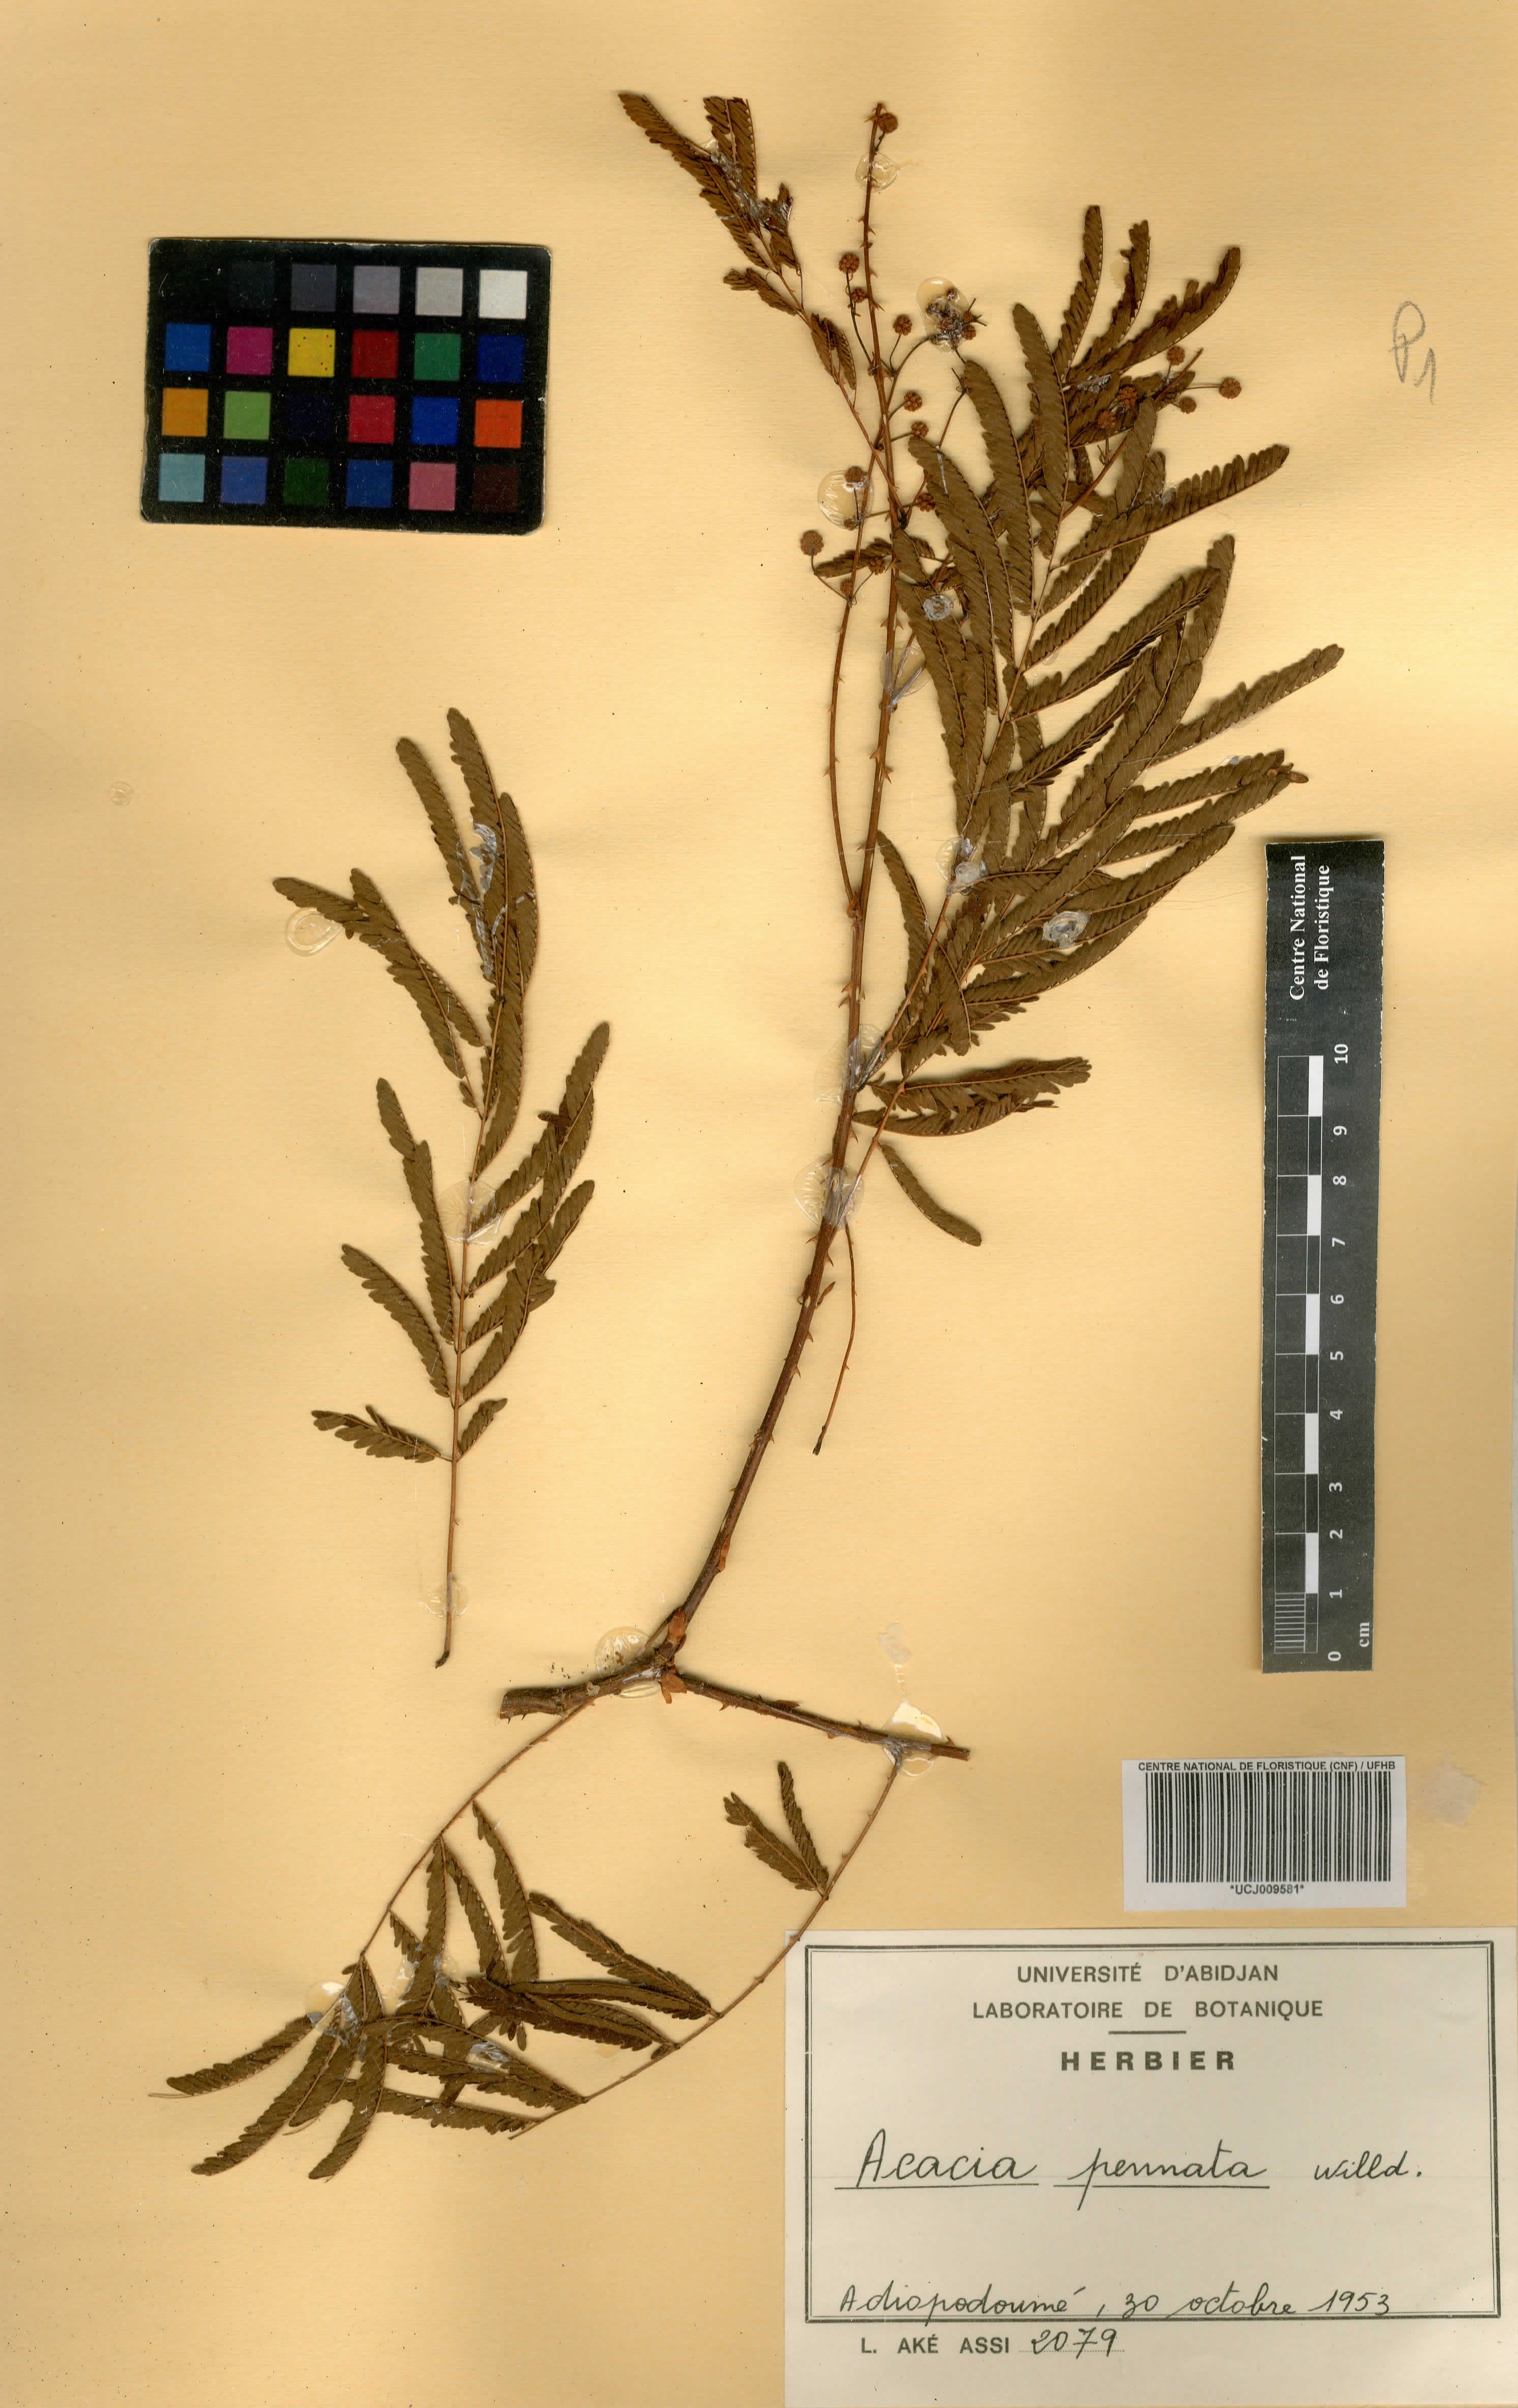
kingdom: Plantae
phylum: Tracheophyta
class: Magnoliopsida
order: Fabales
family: Fabaceae
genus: Senegalia
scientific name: Senegalia pennata
